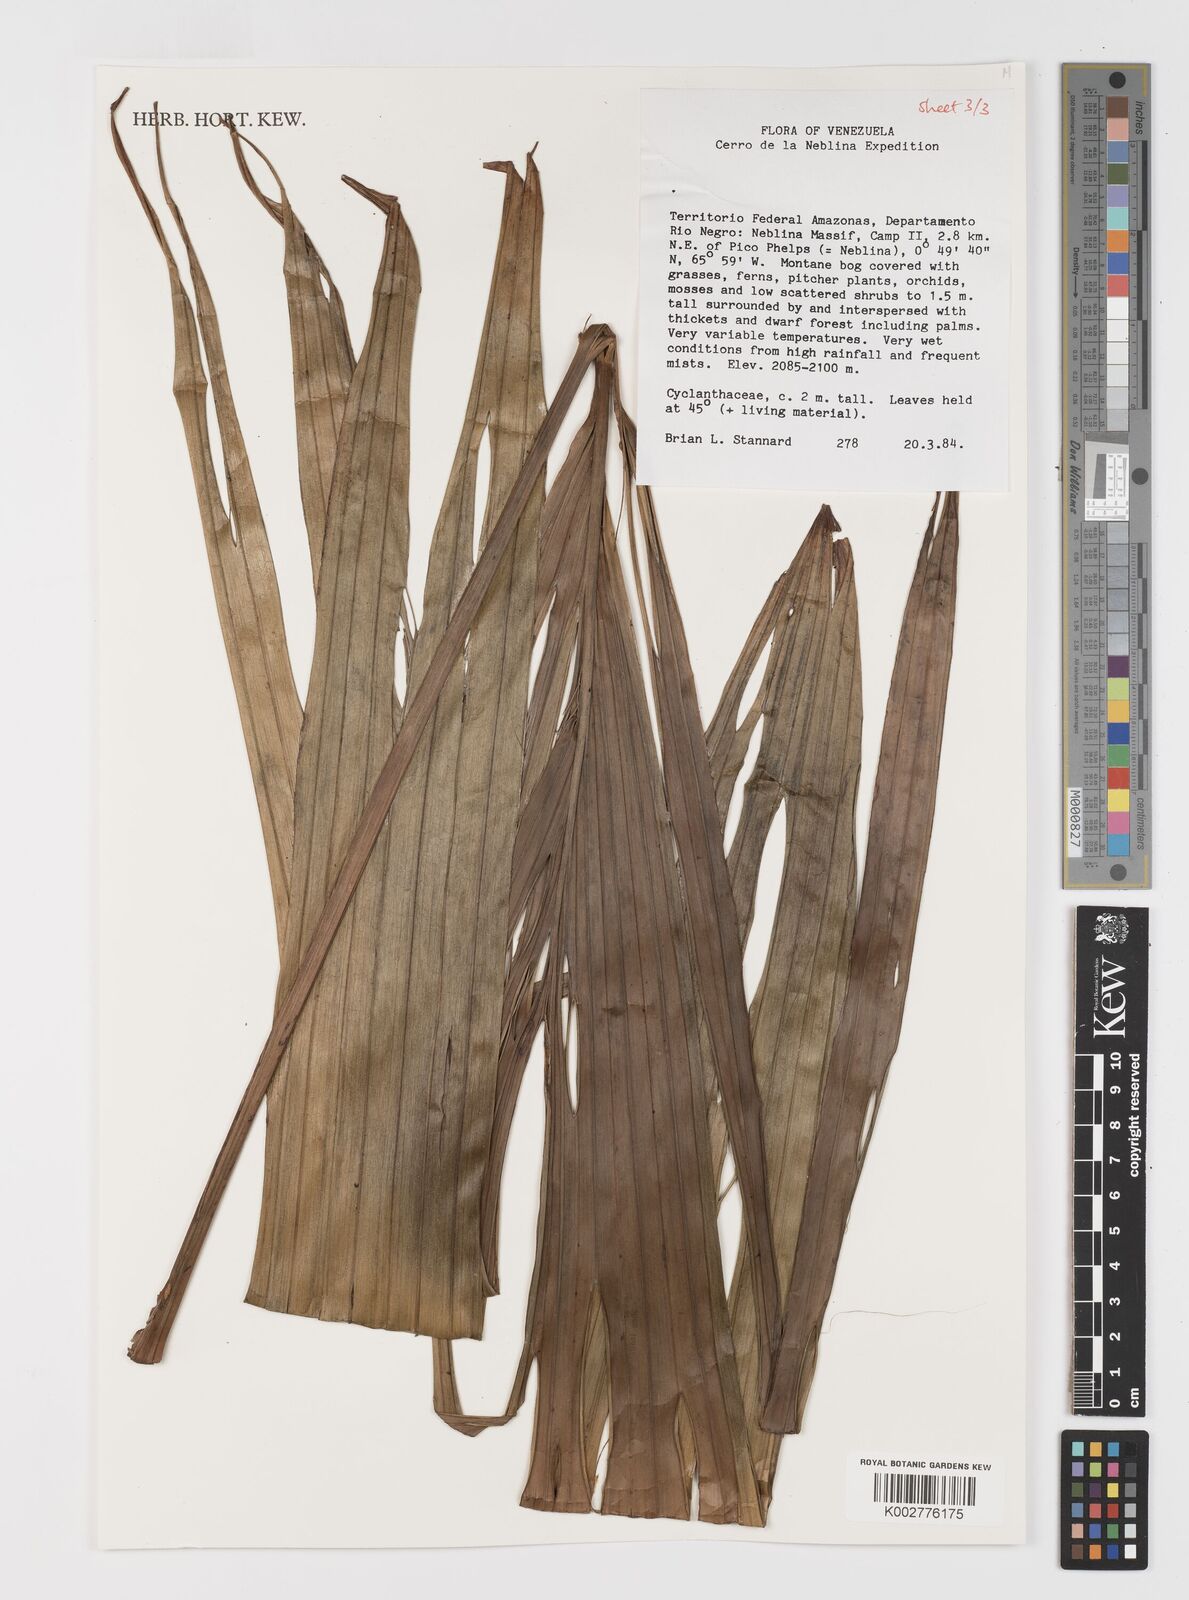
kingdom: Plantae
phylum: Tracheophyta
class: Liliopsida
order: Pandanales
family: Cyclanthaceae
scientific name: Cyclanthaceae
